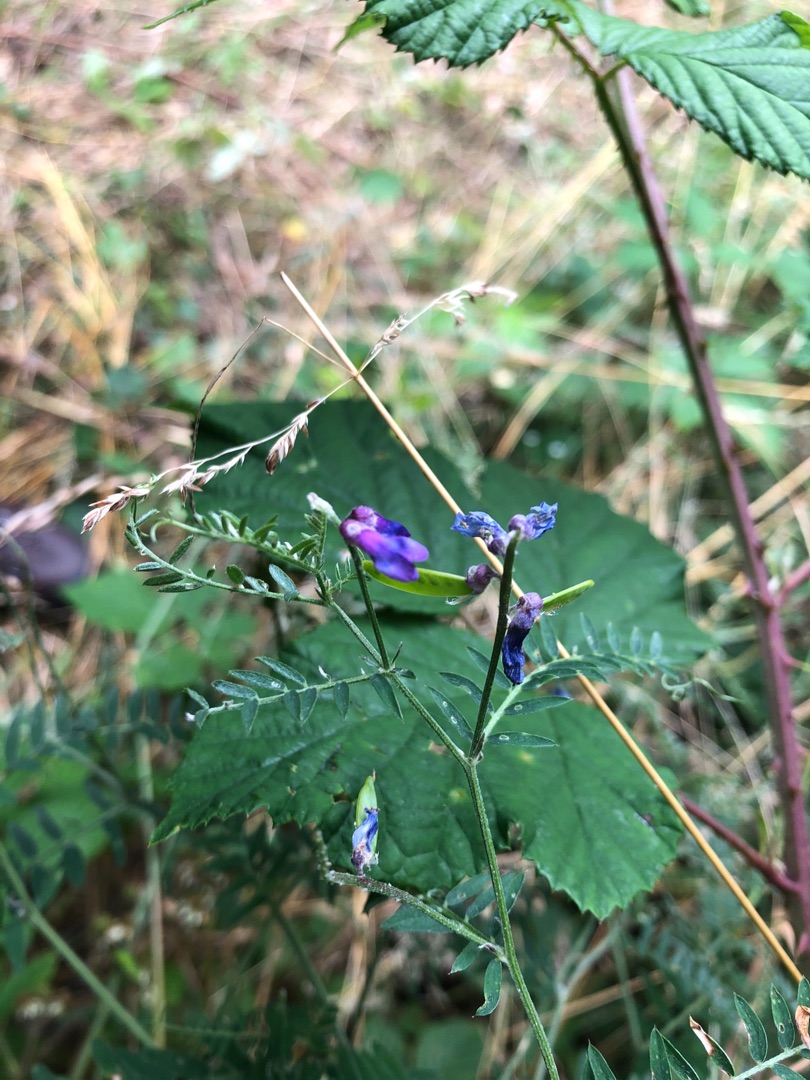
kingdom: Plantae
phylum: Tracheophyta
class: Magnoliopsida
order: Fabales
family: Fabaceae
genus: Vicia
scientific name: Vicia cracca
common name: Muse-vikke
